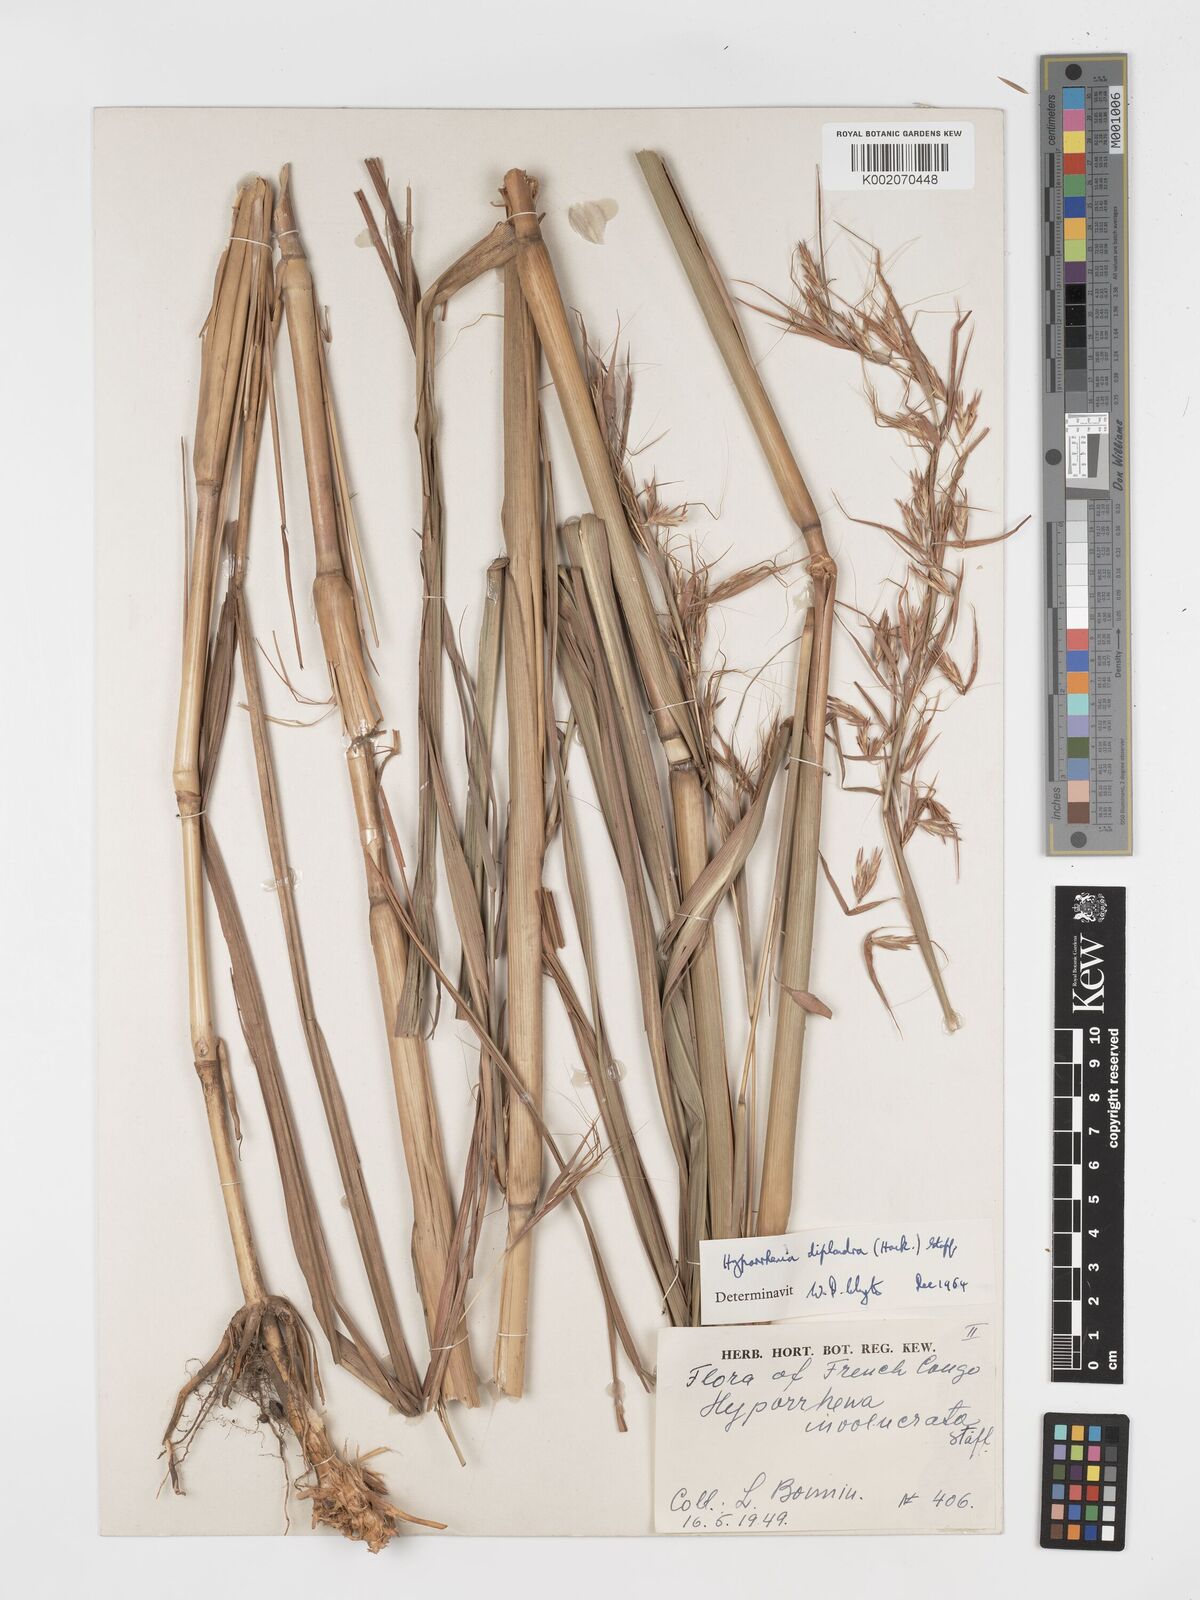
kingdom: Plantae
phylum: Tracheophyta
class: Liliopsida
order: Poales
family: Poaceae
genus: Hyparrhenia
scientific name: Hyparrhenia diplandra
